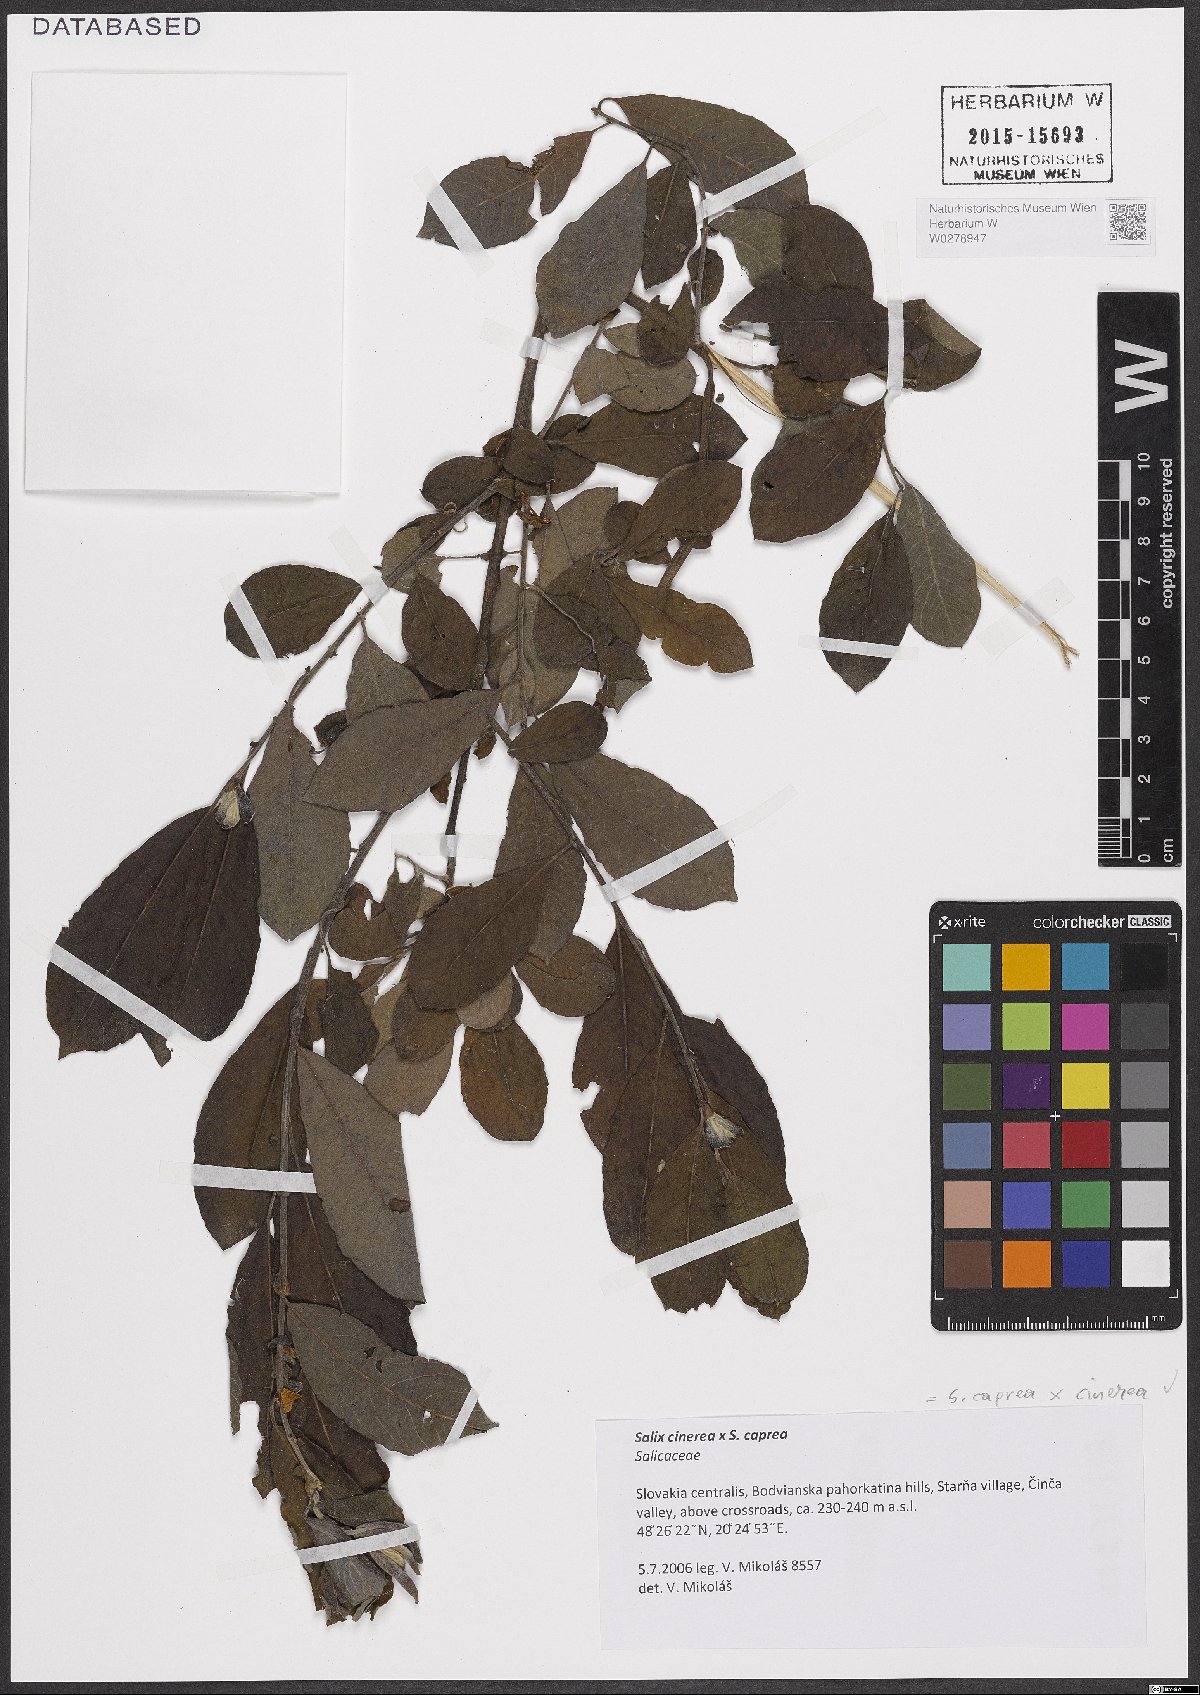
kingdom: Plantae
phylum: Tracheophyta
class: Magnoliopsida
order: Malpighiales
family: Salicaceae
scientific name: Salicaceae
